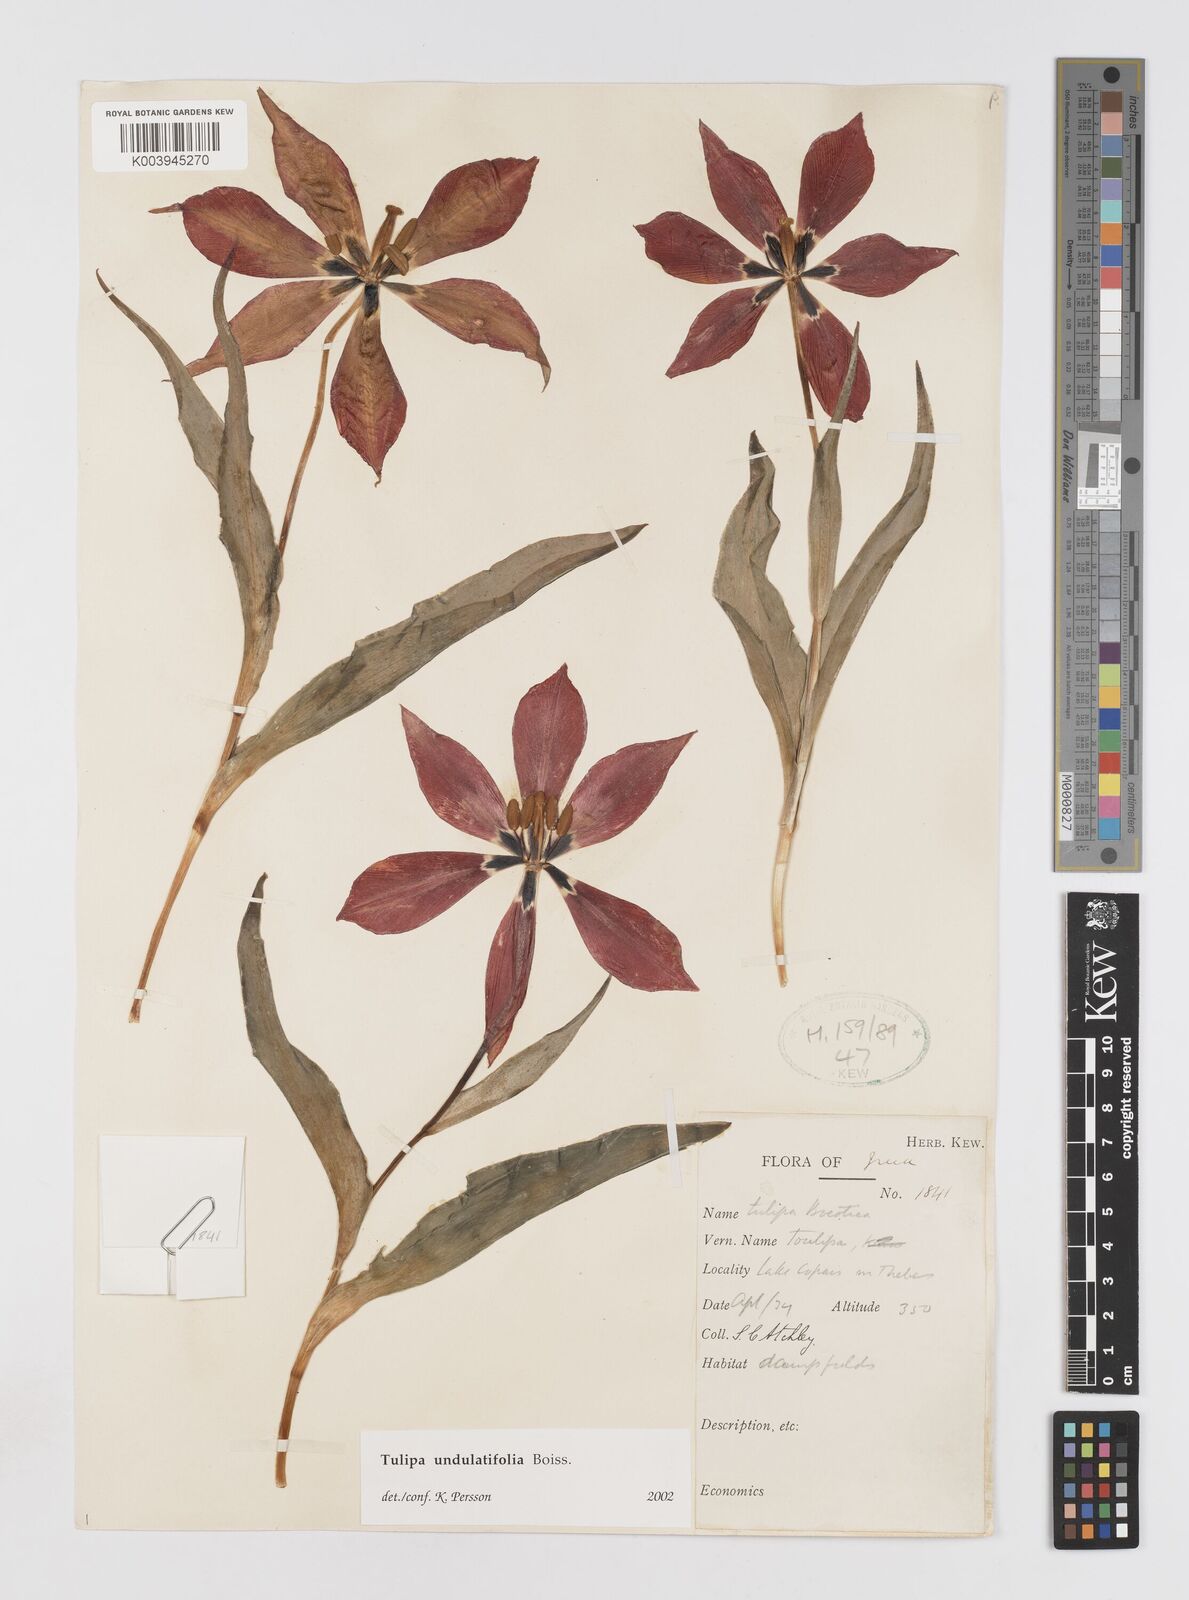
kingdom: Plantae
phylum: Tracheophyta
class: Liliopsida
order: Liliales
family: Liliaceae
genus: Tulipa
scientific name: Tulipa undulatifolia
